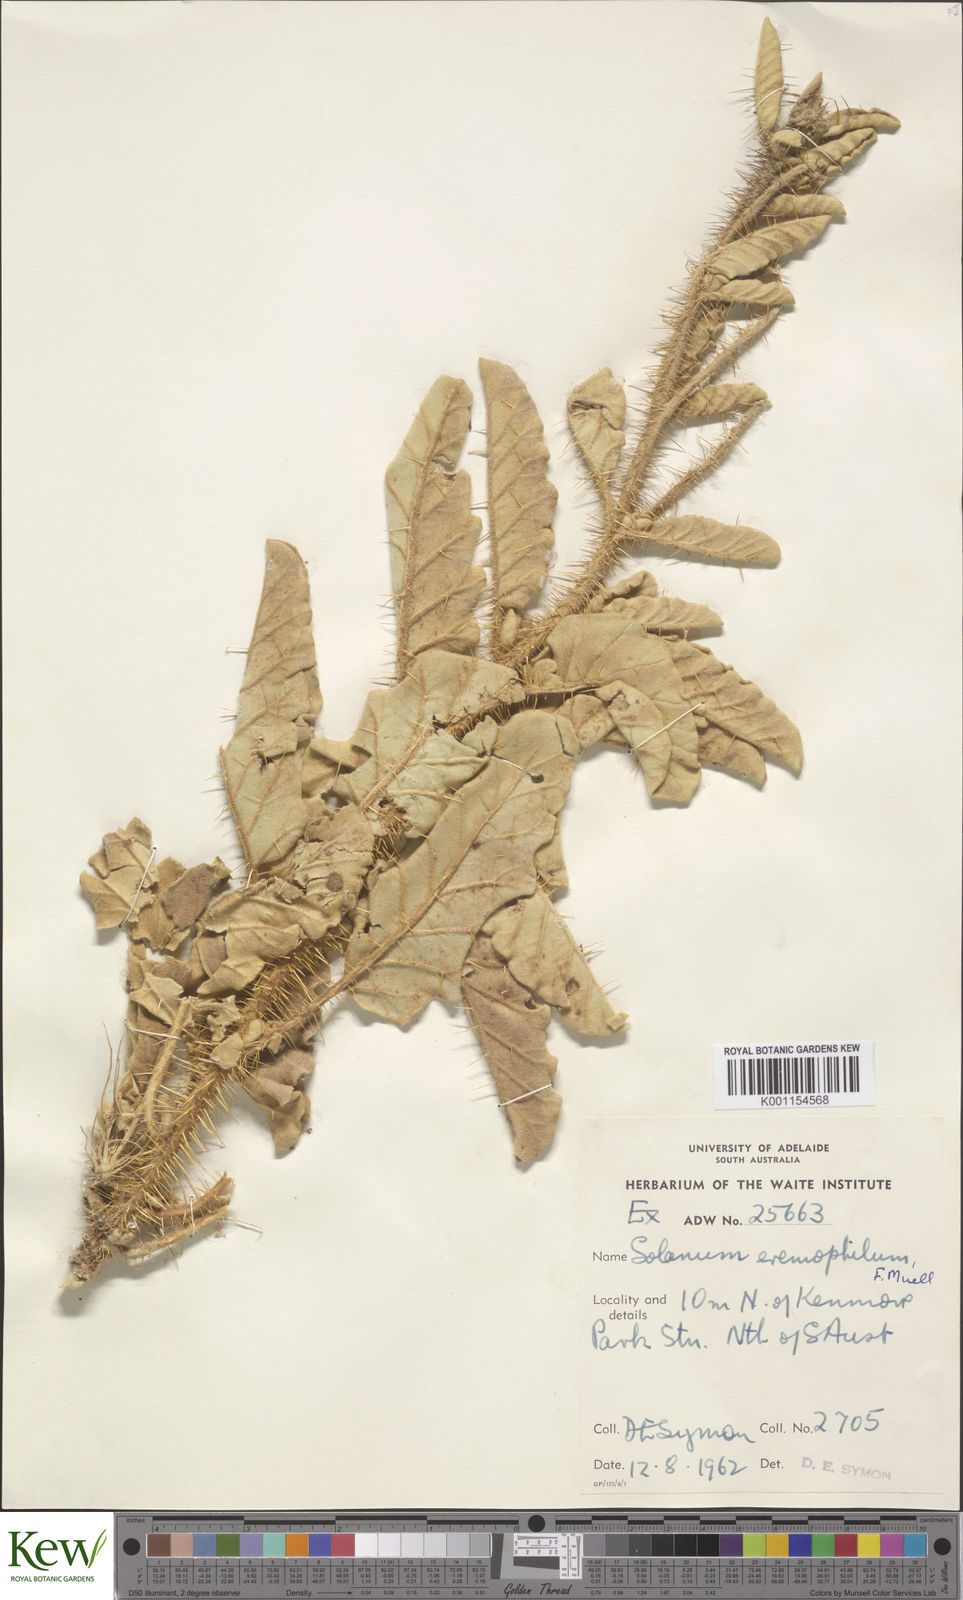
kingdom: Plantae
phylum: Tracheophyta
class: Magnoliopsida
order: Solanales
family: Solanaceae
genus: Solanum
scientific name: Solanum eremophilum
